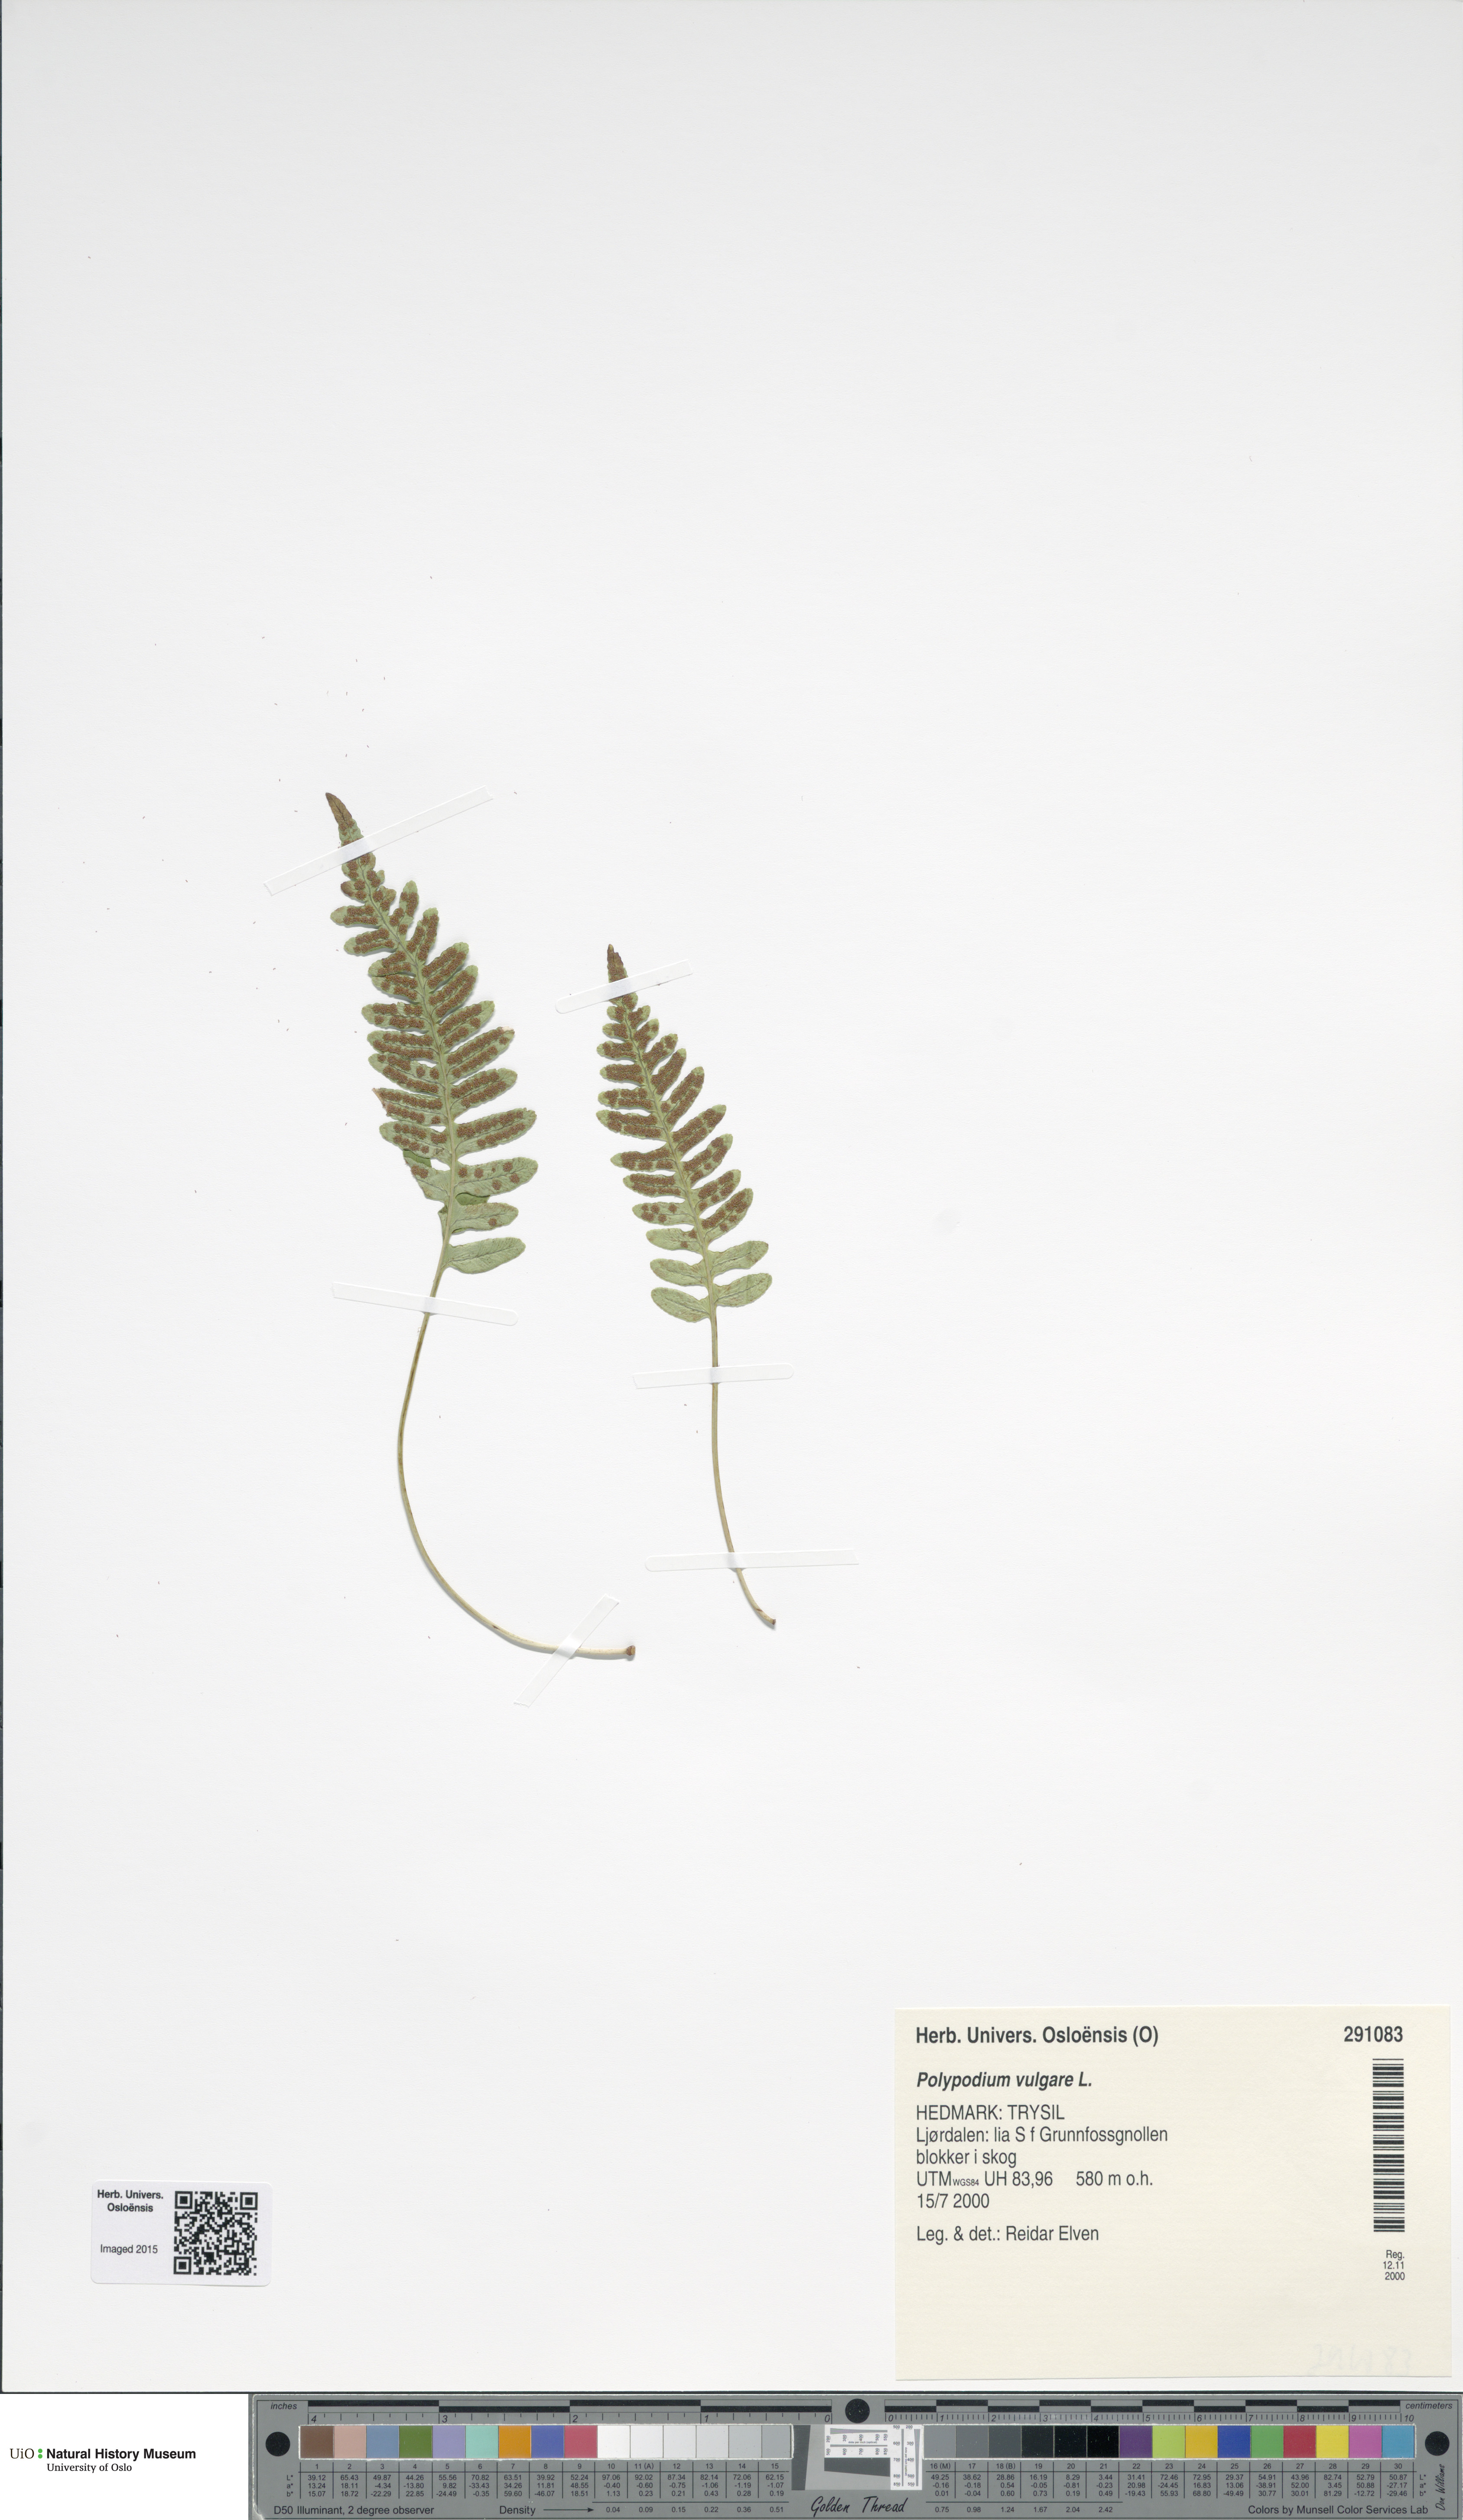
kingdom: Plantae
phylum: Tracheophyta
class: Polypodiopsida
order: Polypodiales
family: Polypodiaceae
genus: Polypodium
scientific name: Polypodium vulgare
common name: Common polypody
